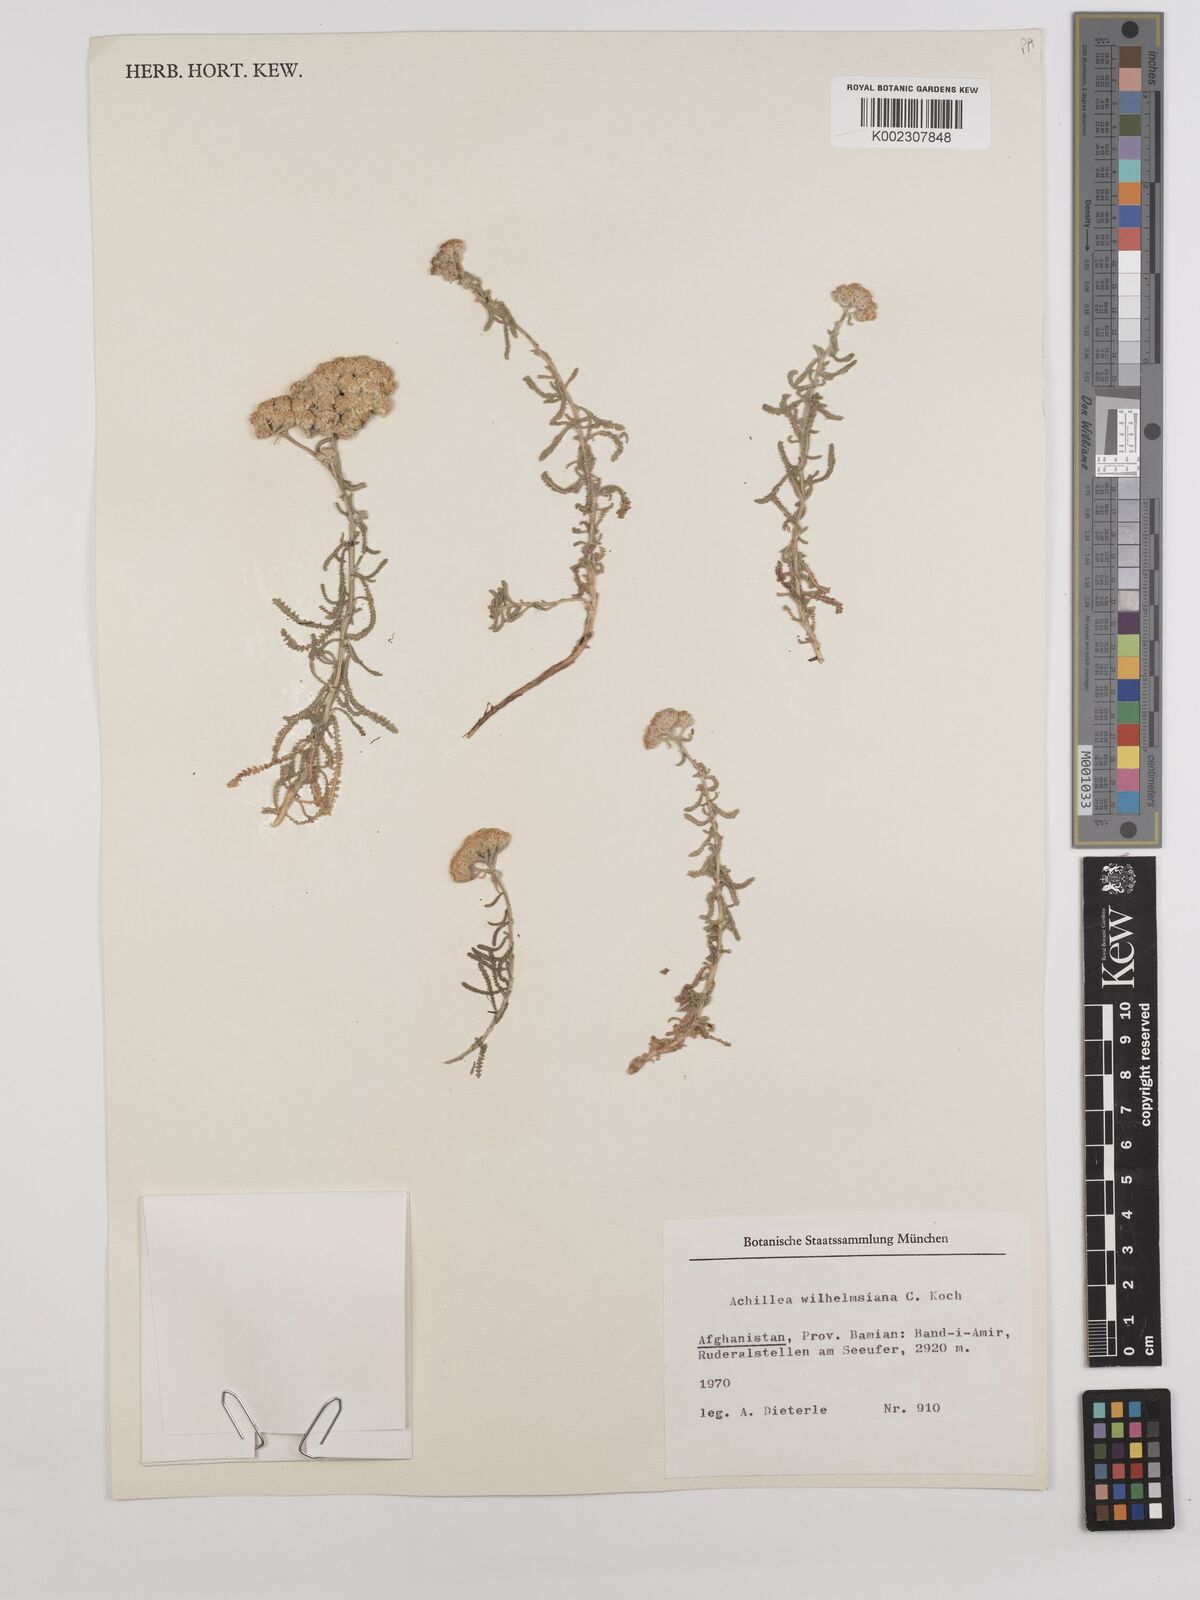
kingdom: Plantae
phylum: Tracheophyta
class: Magnoliopsida
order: Asterales
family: Asteraceae
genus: Achillea
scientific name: Achillea cretica
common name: Chamomile-leaved lavender-cotton
